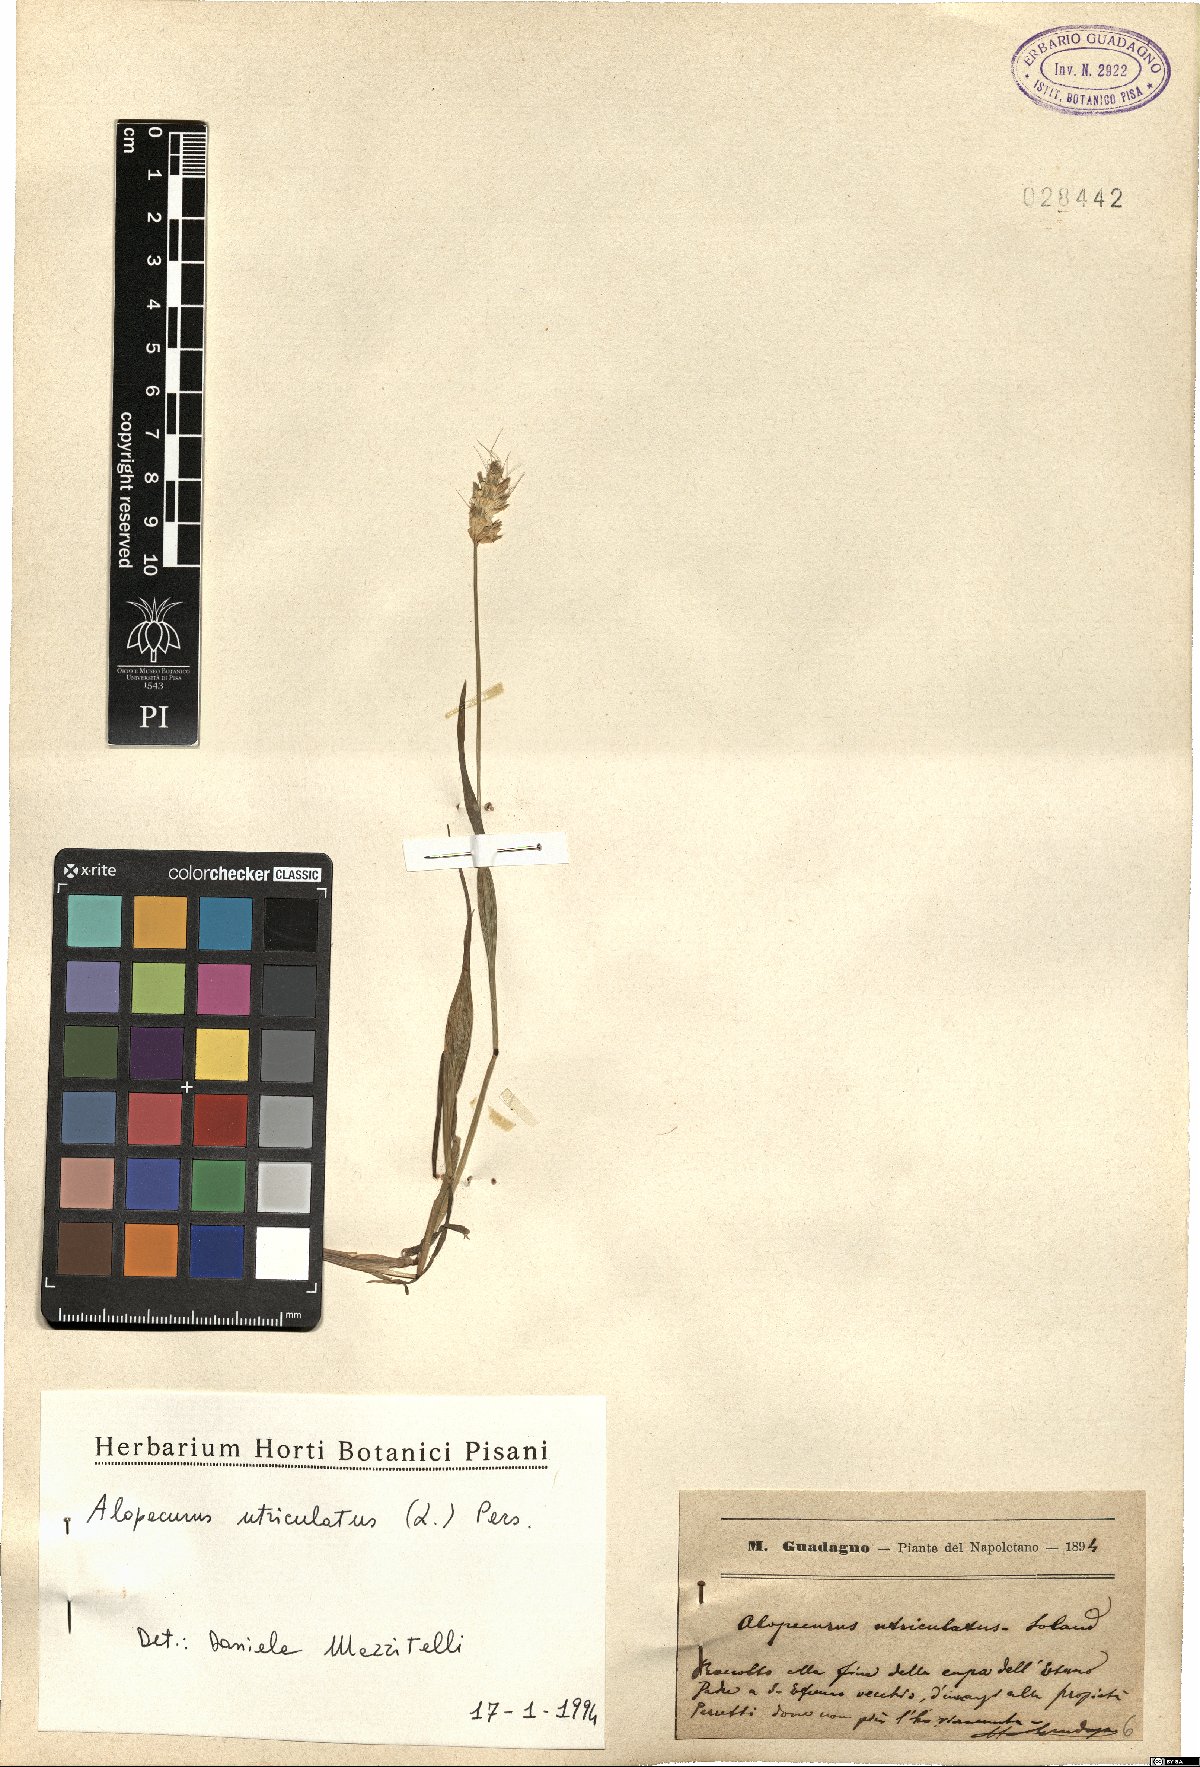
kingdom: Plantae
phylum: Tracheophyta
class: Liliopsida
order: Poales
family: Poaceae
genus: Alopecurus
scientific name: Alopecurus rendlei
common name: Rendle's meadow foxtail
